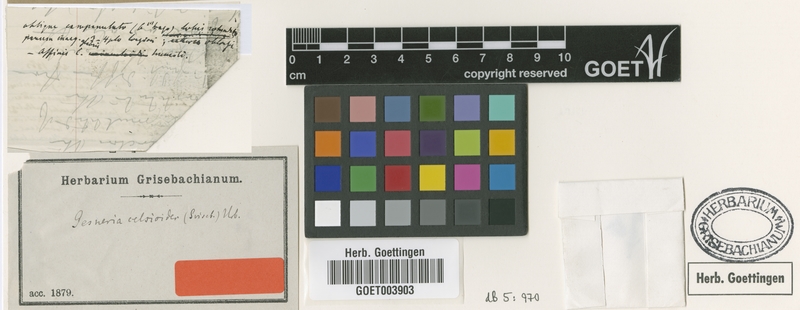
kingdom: Plantae
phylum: Tracheophyta
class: Magnoliopsida
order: Lamiales
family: Gesneriaceae
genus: Gesneria
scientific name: Gesneria humilis
